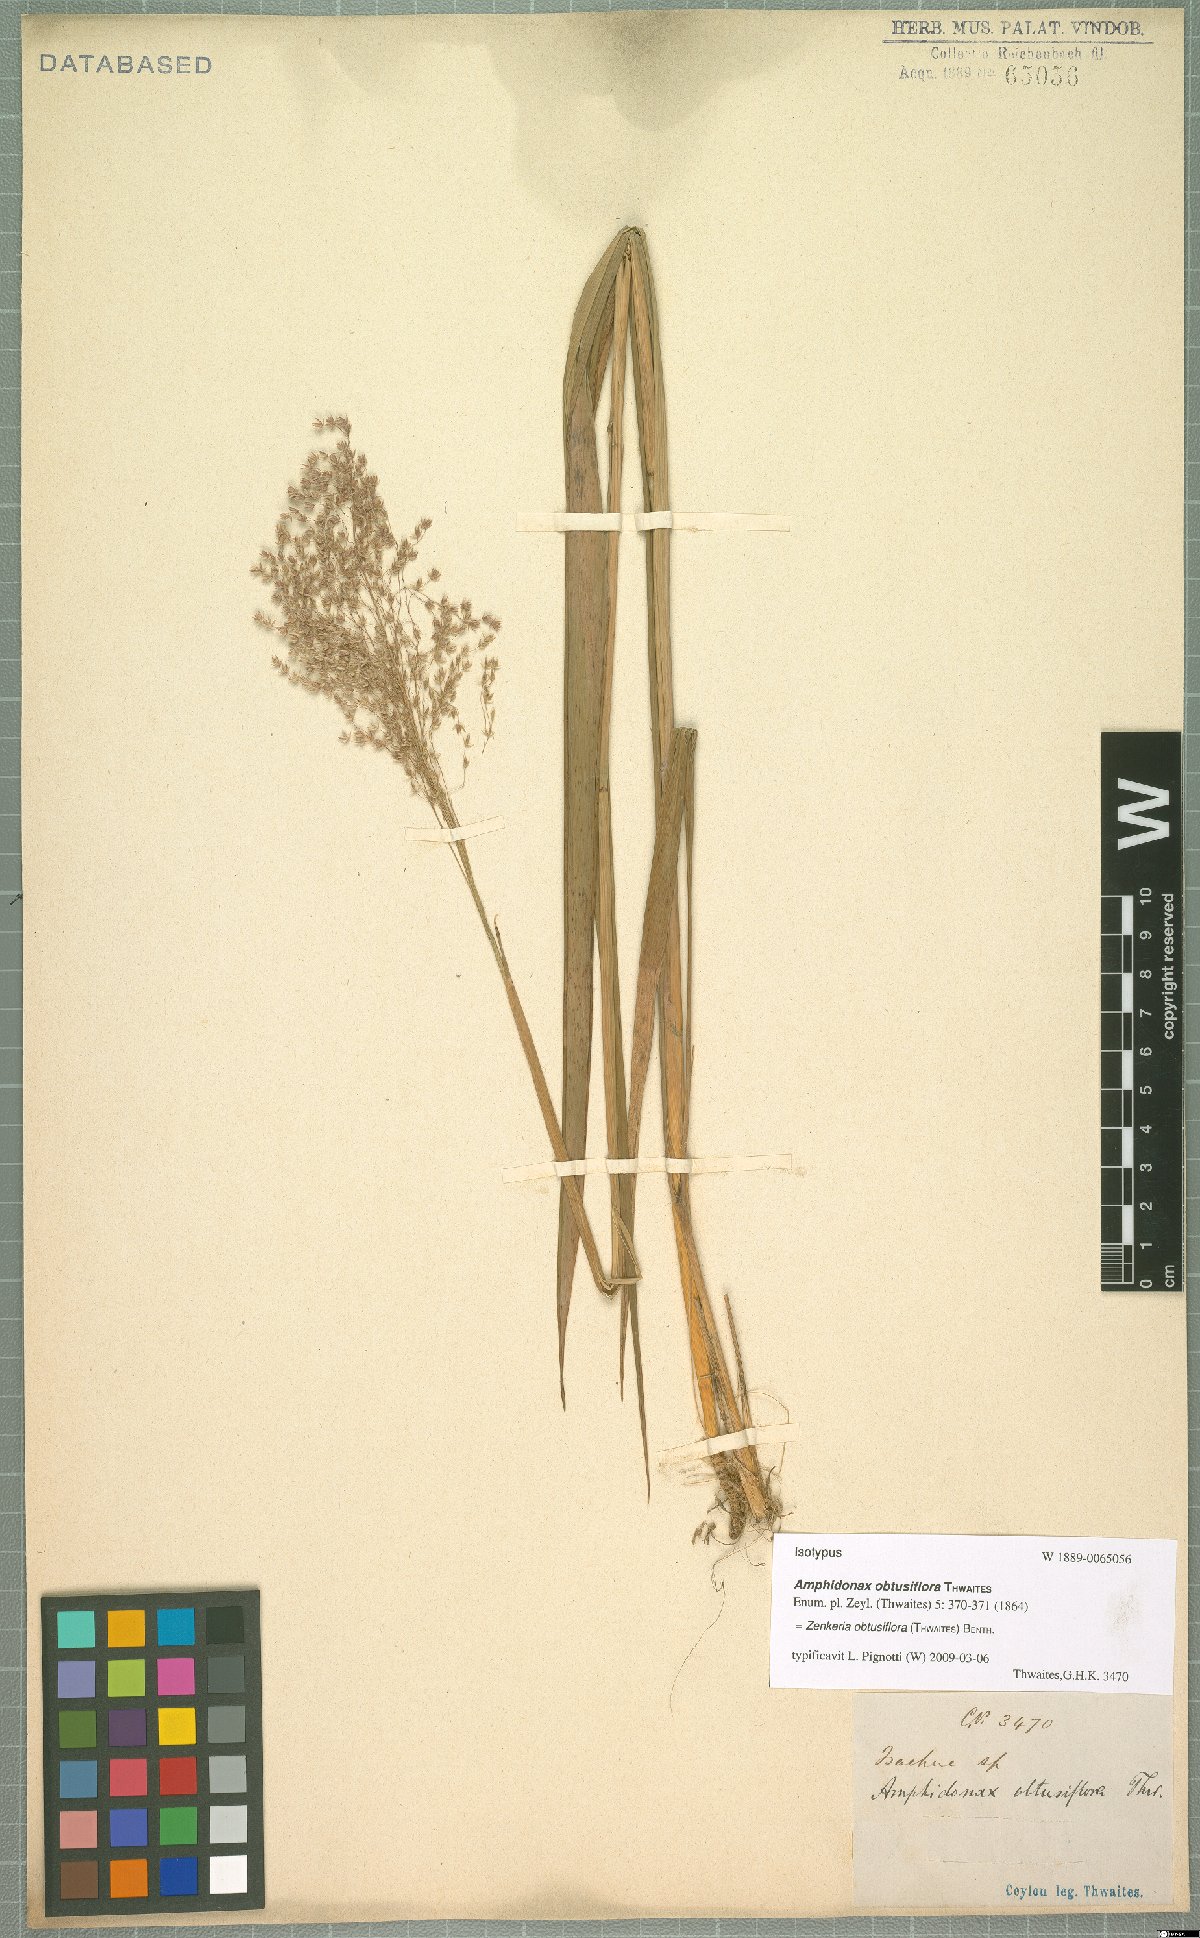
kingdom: Plantae
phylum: Tracheophyta
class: Liliopsida
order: Poales
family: Poaceae
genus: Zenkeria
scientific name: Zenkeria obtusiflora
